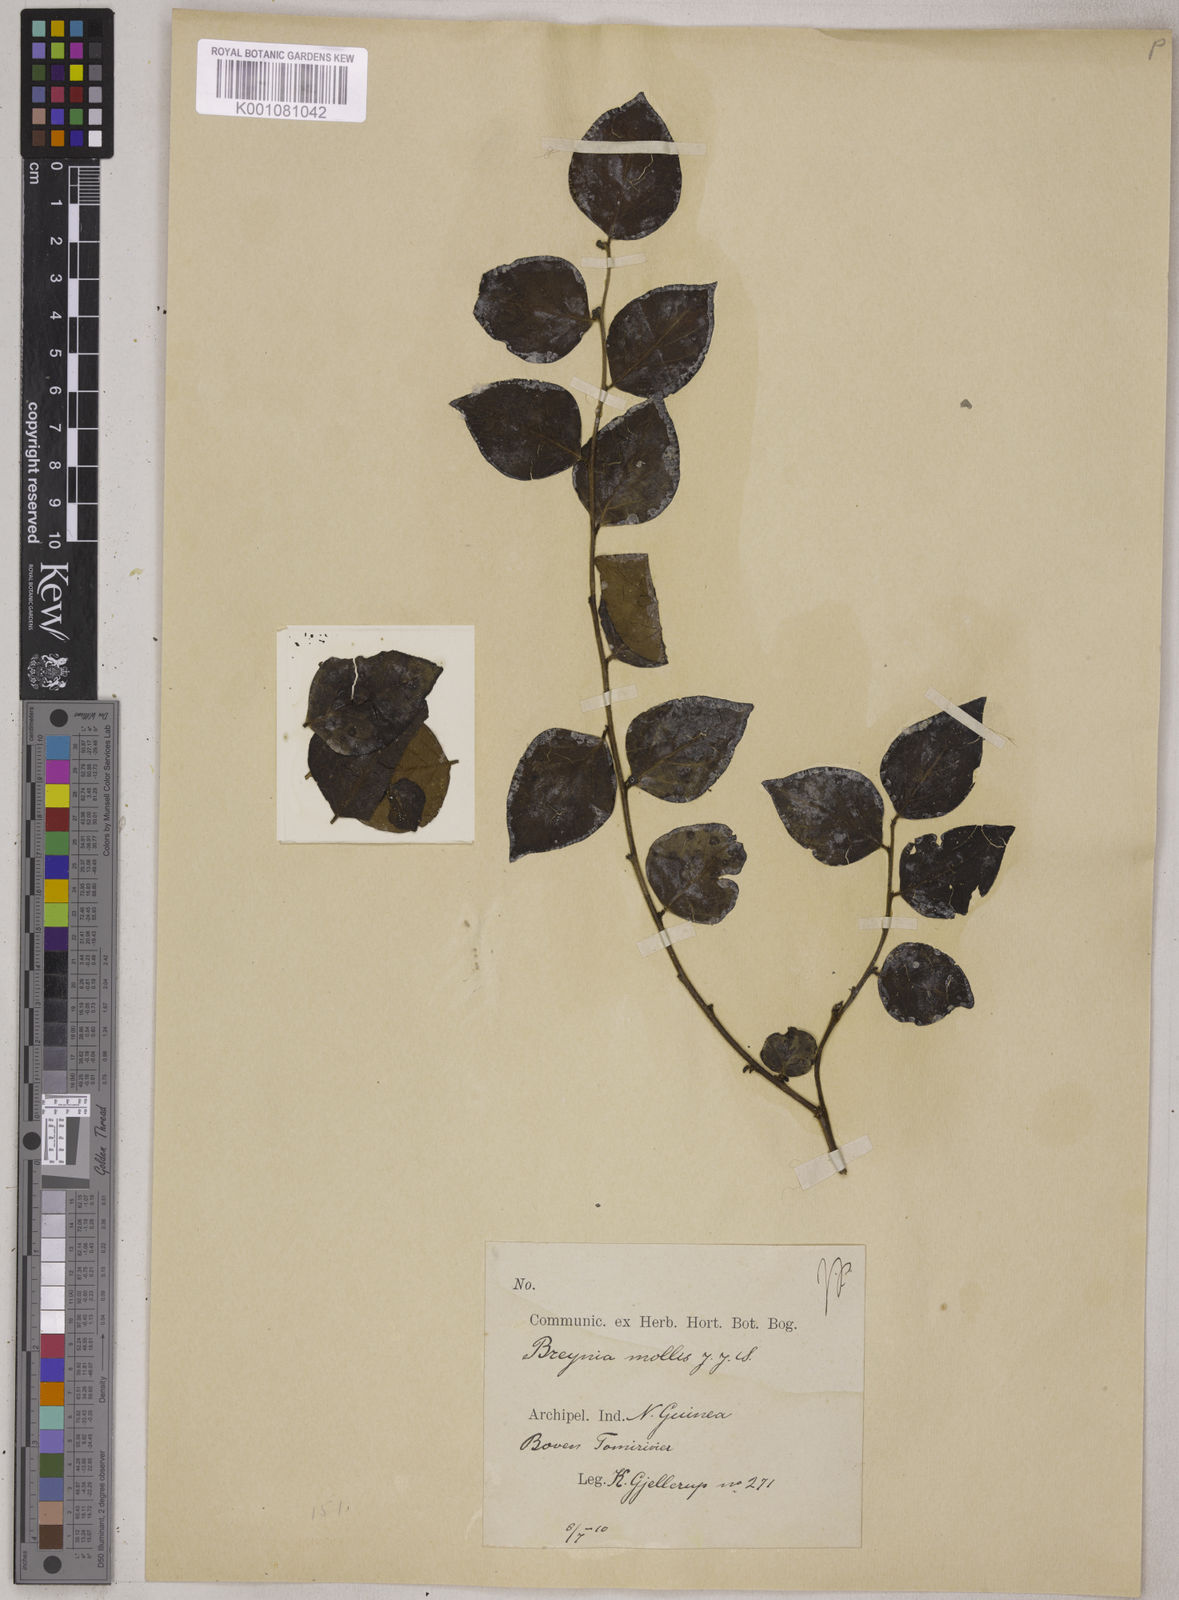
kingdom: Plantae
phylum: Tracheophyta
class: Magnoliopsida
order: Malpighiales
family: Phyllanthaceae
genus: Breynia
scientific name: Breynia mollis
